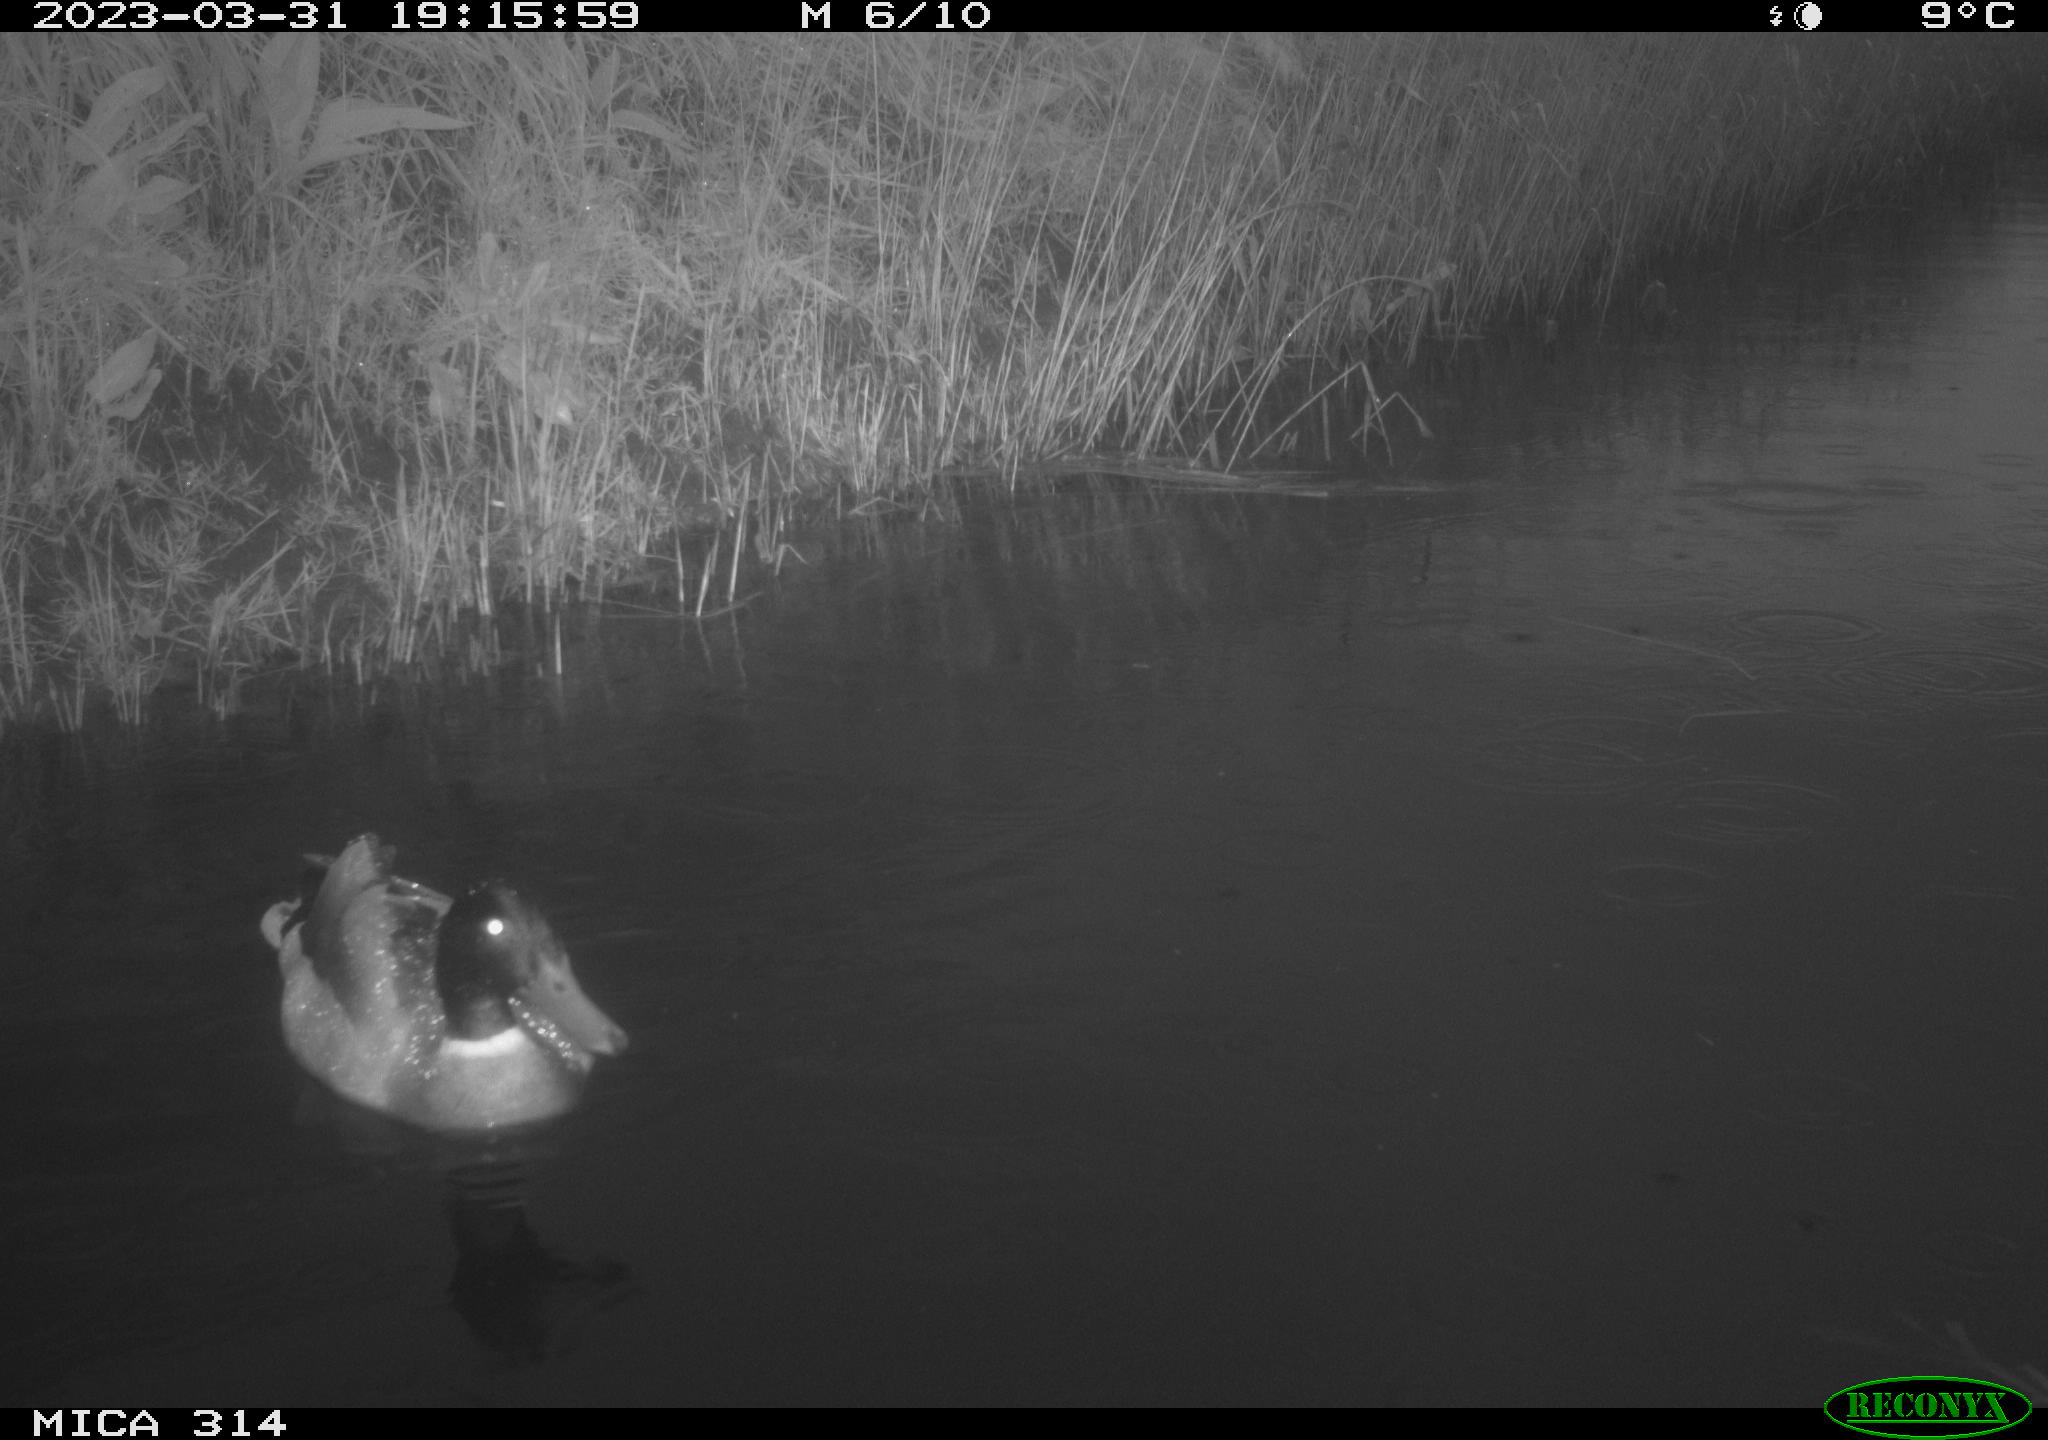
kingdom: Animalia
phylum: Chordata
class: Aves
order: Anseriformes
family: Anatidae
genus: Anas
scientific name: Anas platyrhynchos
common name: Mallard
